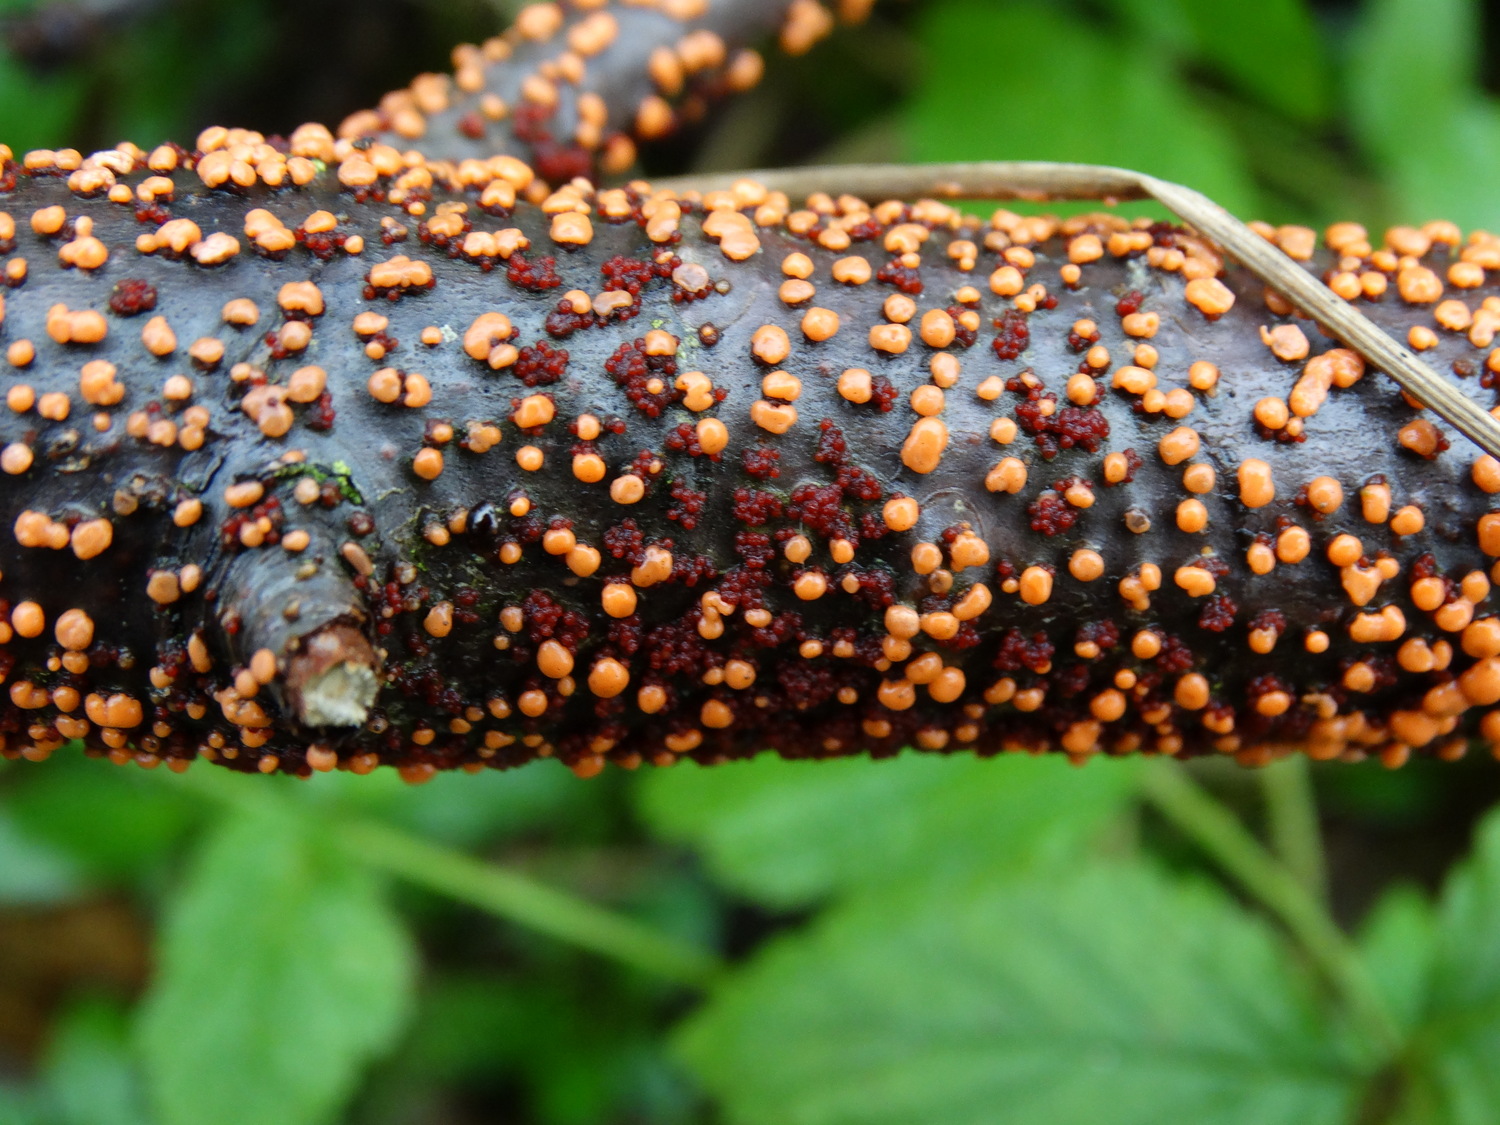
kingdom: Fungi
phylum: Ascomycota
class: Sordariomycetes
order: Hypocreales
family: Nectriaceae
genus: Nectria
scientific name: Nectria cinnabarina
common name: almindelig cinnobersvamp
